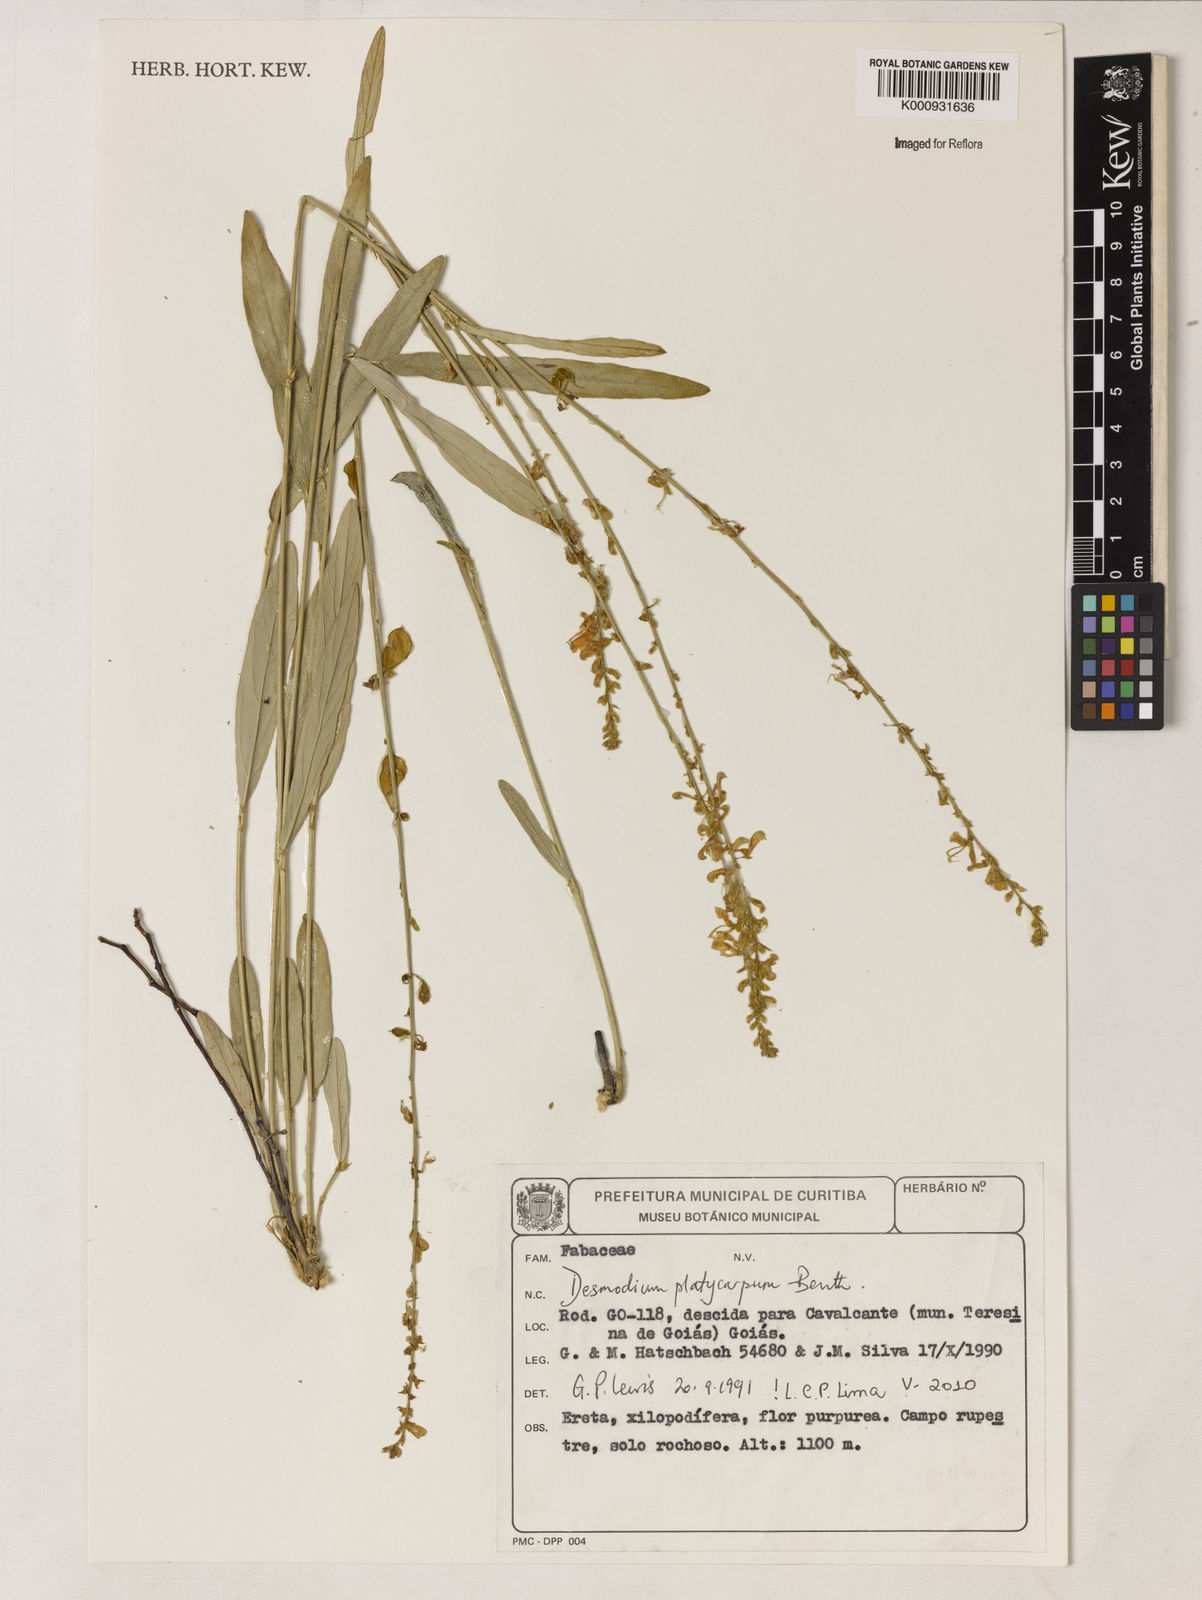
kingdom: Plantae
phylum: Tracheophyta
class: Magnoliopsida
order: Fabales
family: Fabaceae
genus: Desmodium
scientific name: Desmodium platycarpum
